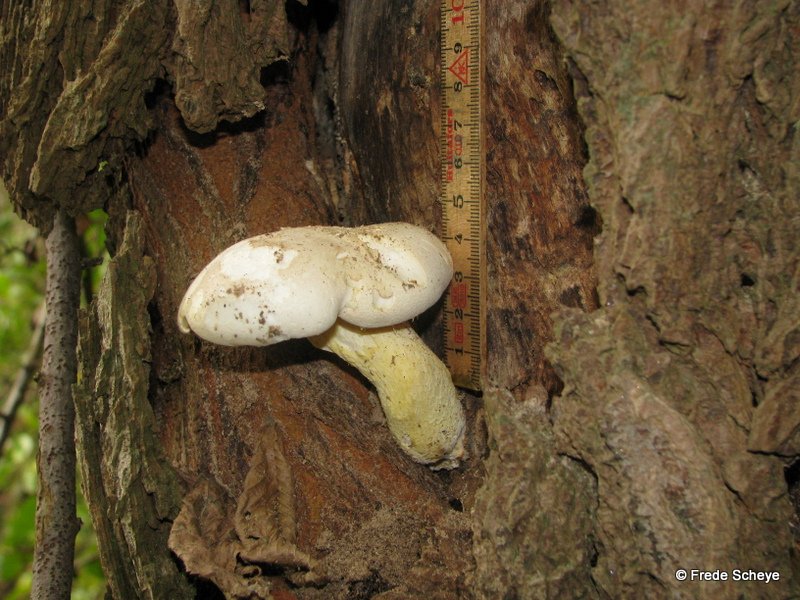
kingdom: Fungi
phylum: Basidiomycota
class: Agaricomycetes
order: Agaricales
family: Pleurotaceae
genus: Pleurotus
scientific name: Pleurotus dryinus
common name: korkagtig østershat
